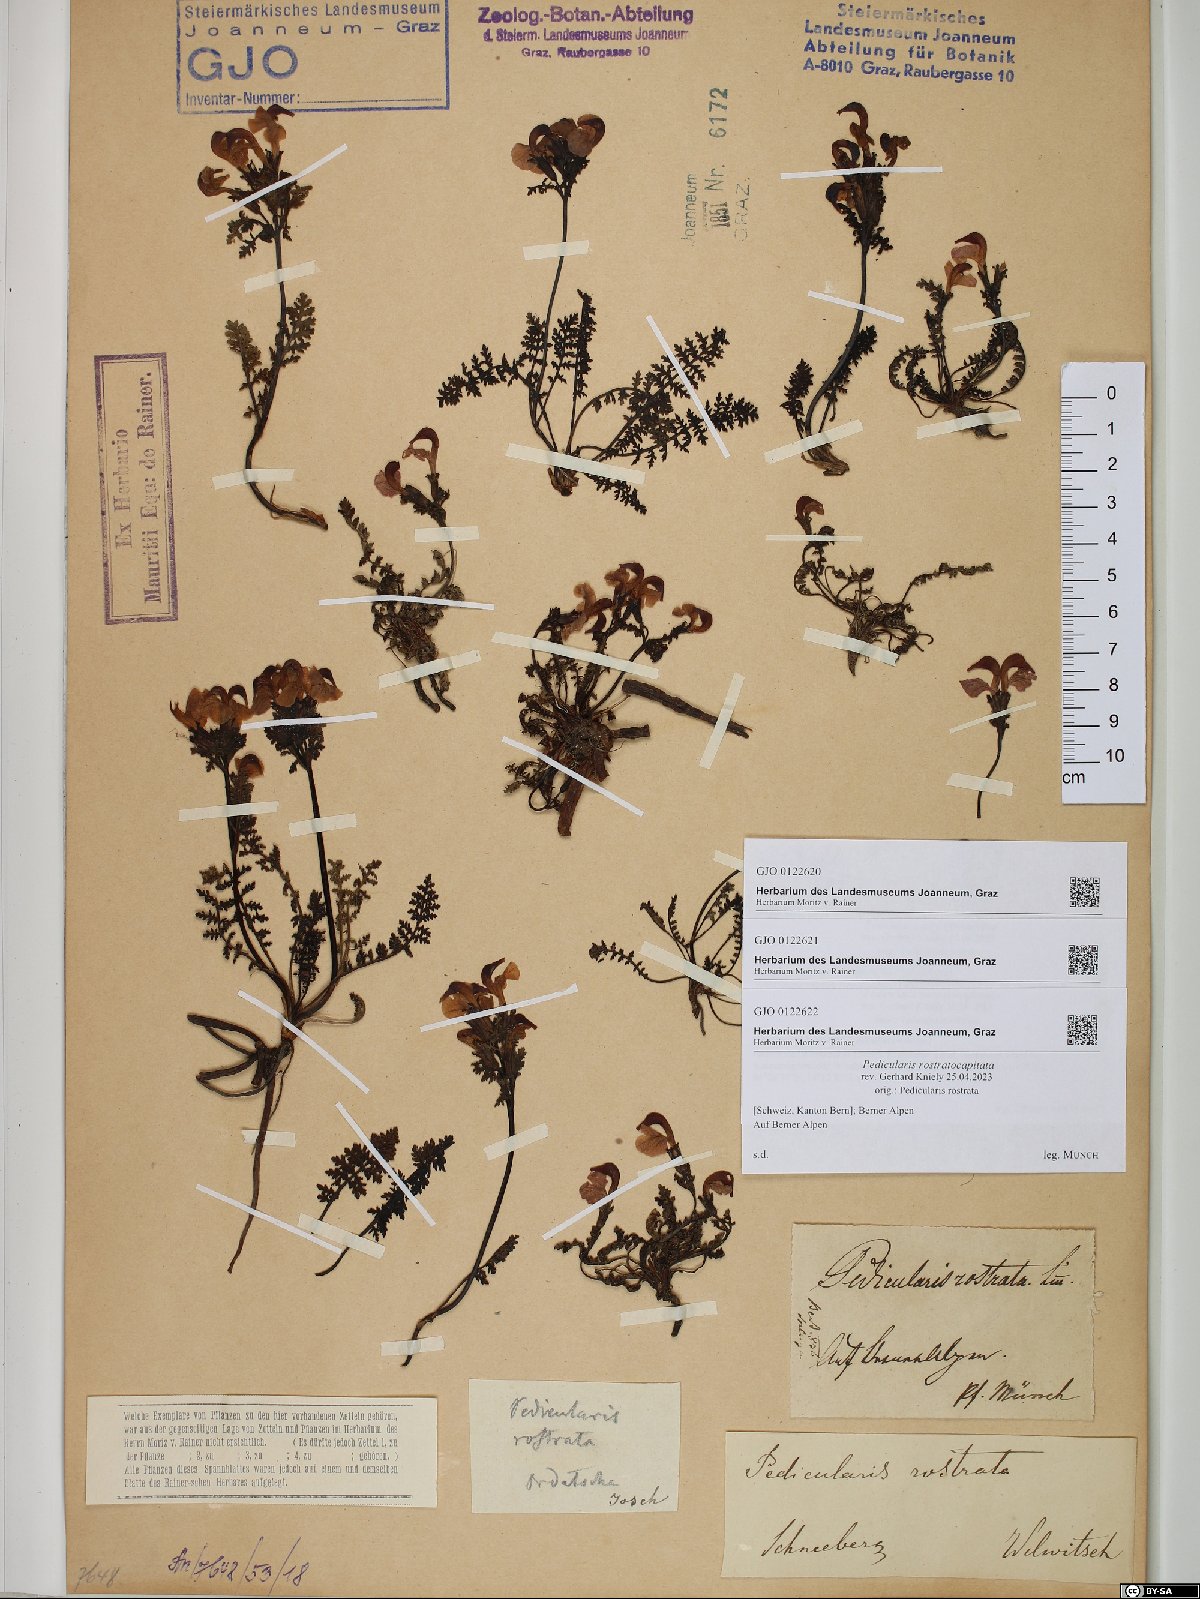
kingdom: Plantae
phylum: Tracheophyta
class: Magnoliopsida
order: Lamiales
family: Orobanchaceae
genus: Pedicularis
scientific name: Pedicularis rostratocapitata
